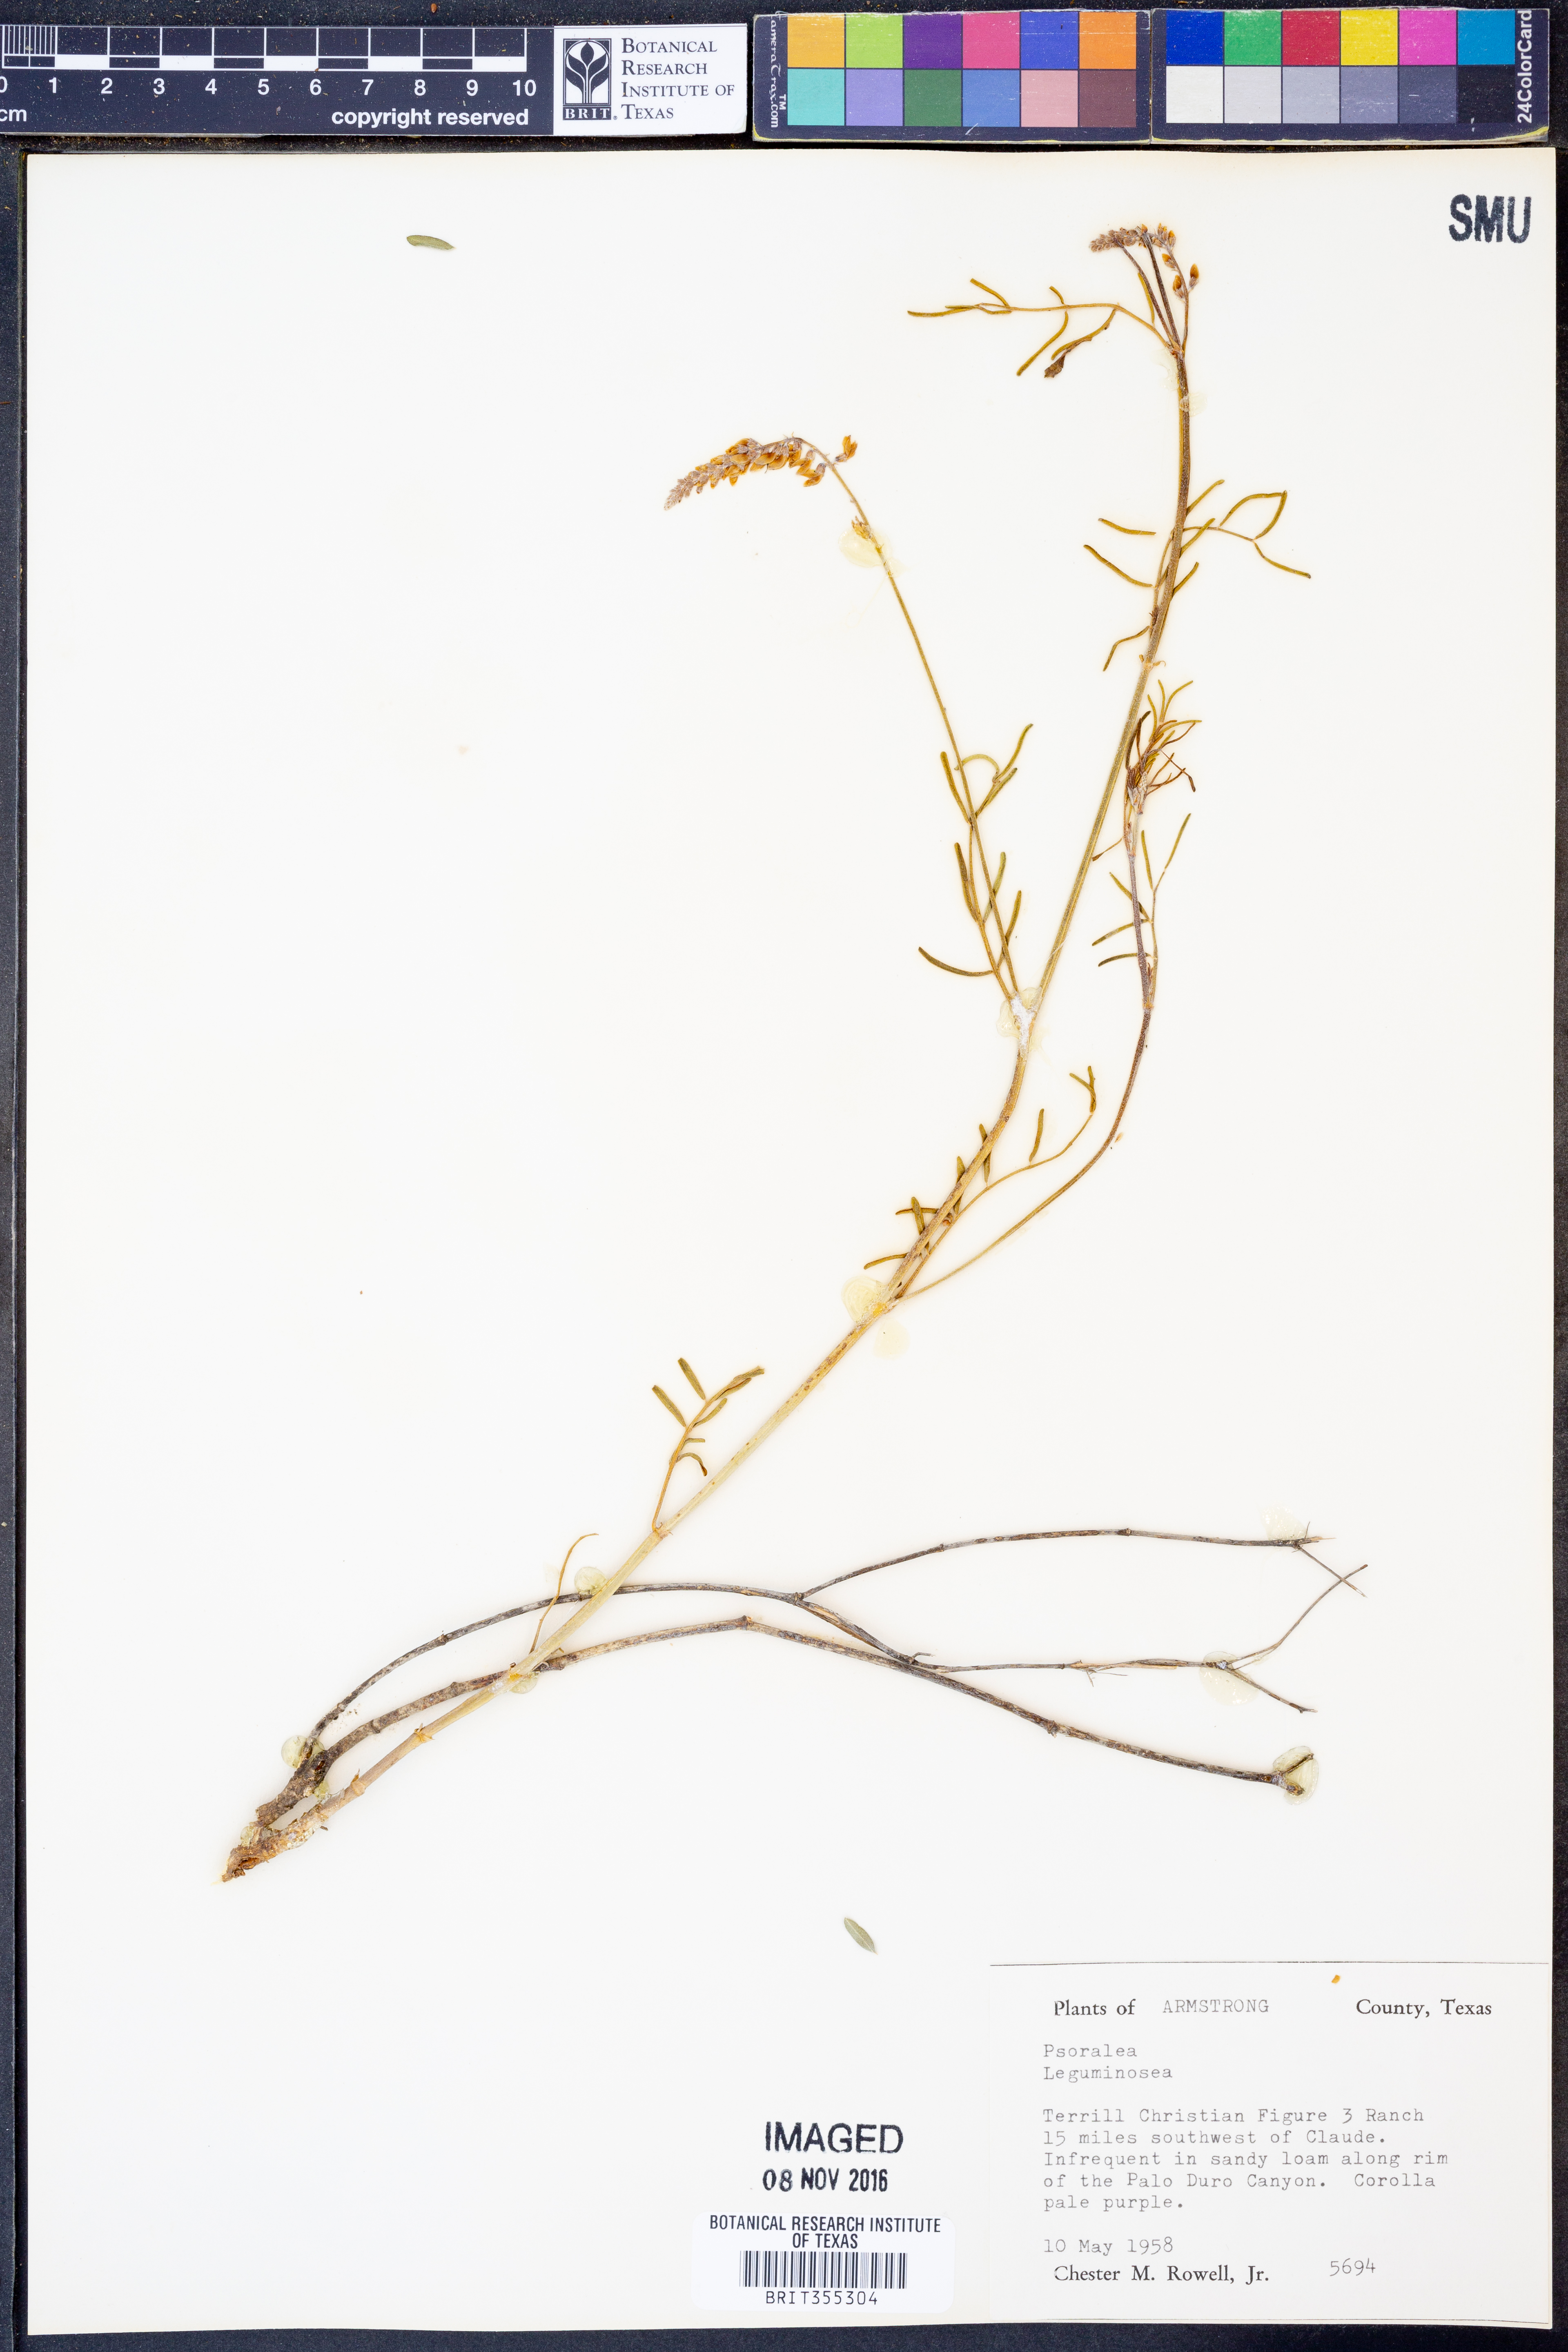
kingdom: Plantae
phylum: Tracheophyta
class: Magnoliopsida
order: Fabales
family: Fabaceae
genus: Psoralea
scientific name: Psoralea
